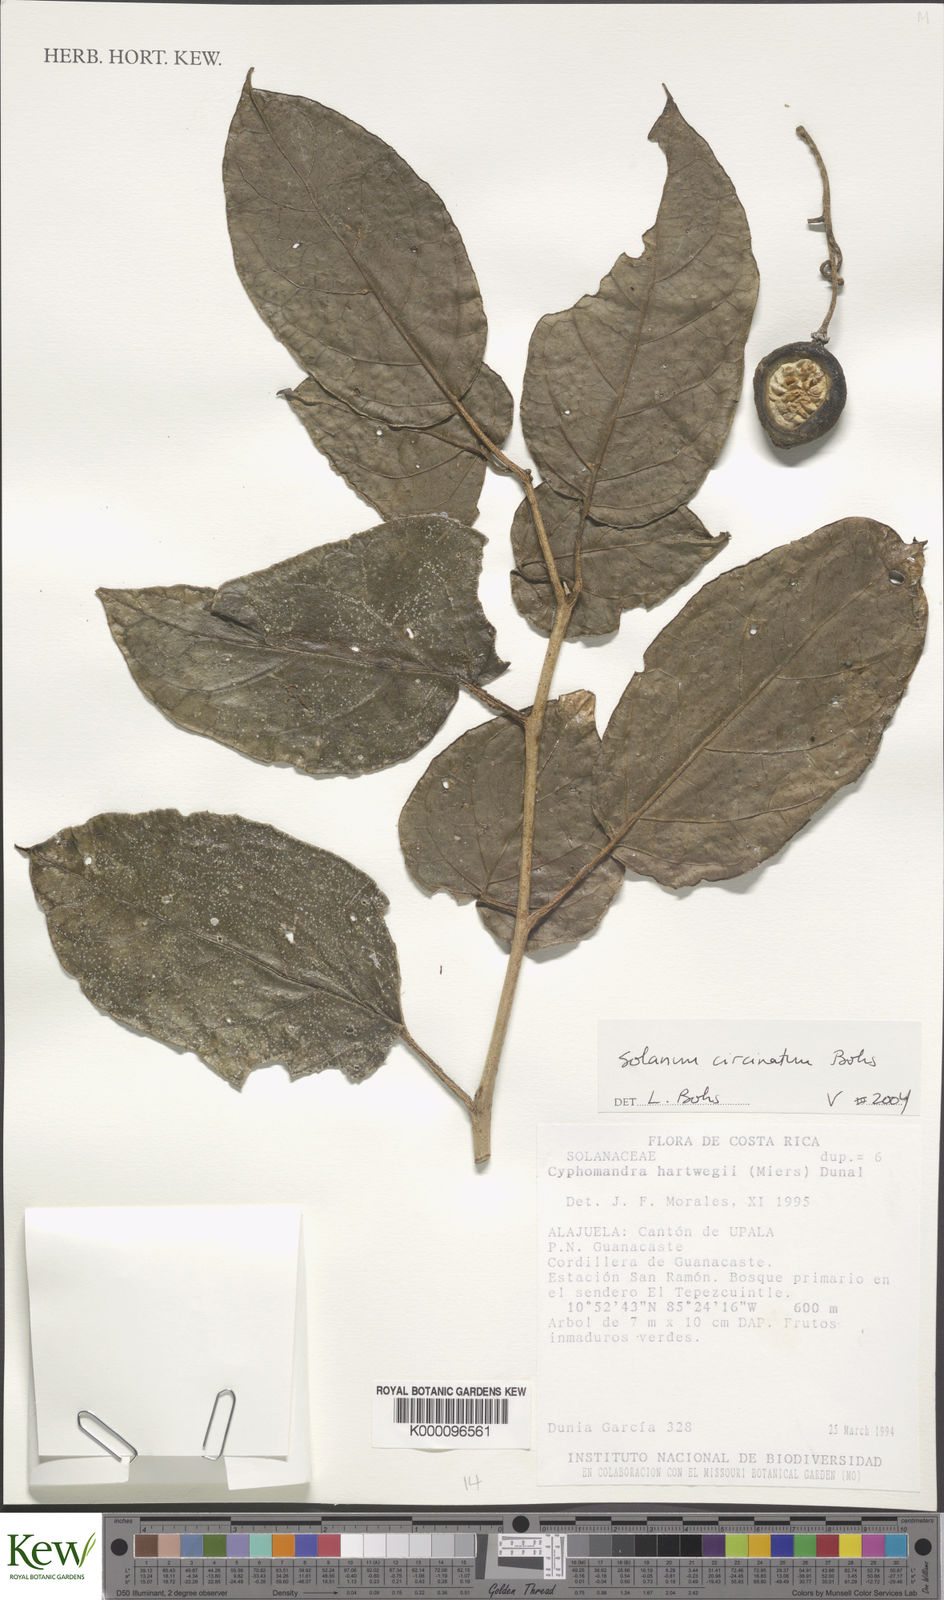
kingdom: Plantae
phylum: Tracheophyta
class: Magnoliopsida
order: Solanales
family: Solanaceae
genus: Solanum
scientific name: Solanum splendens
